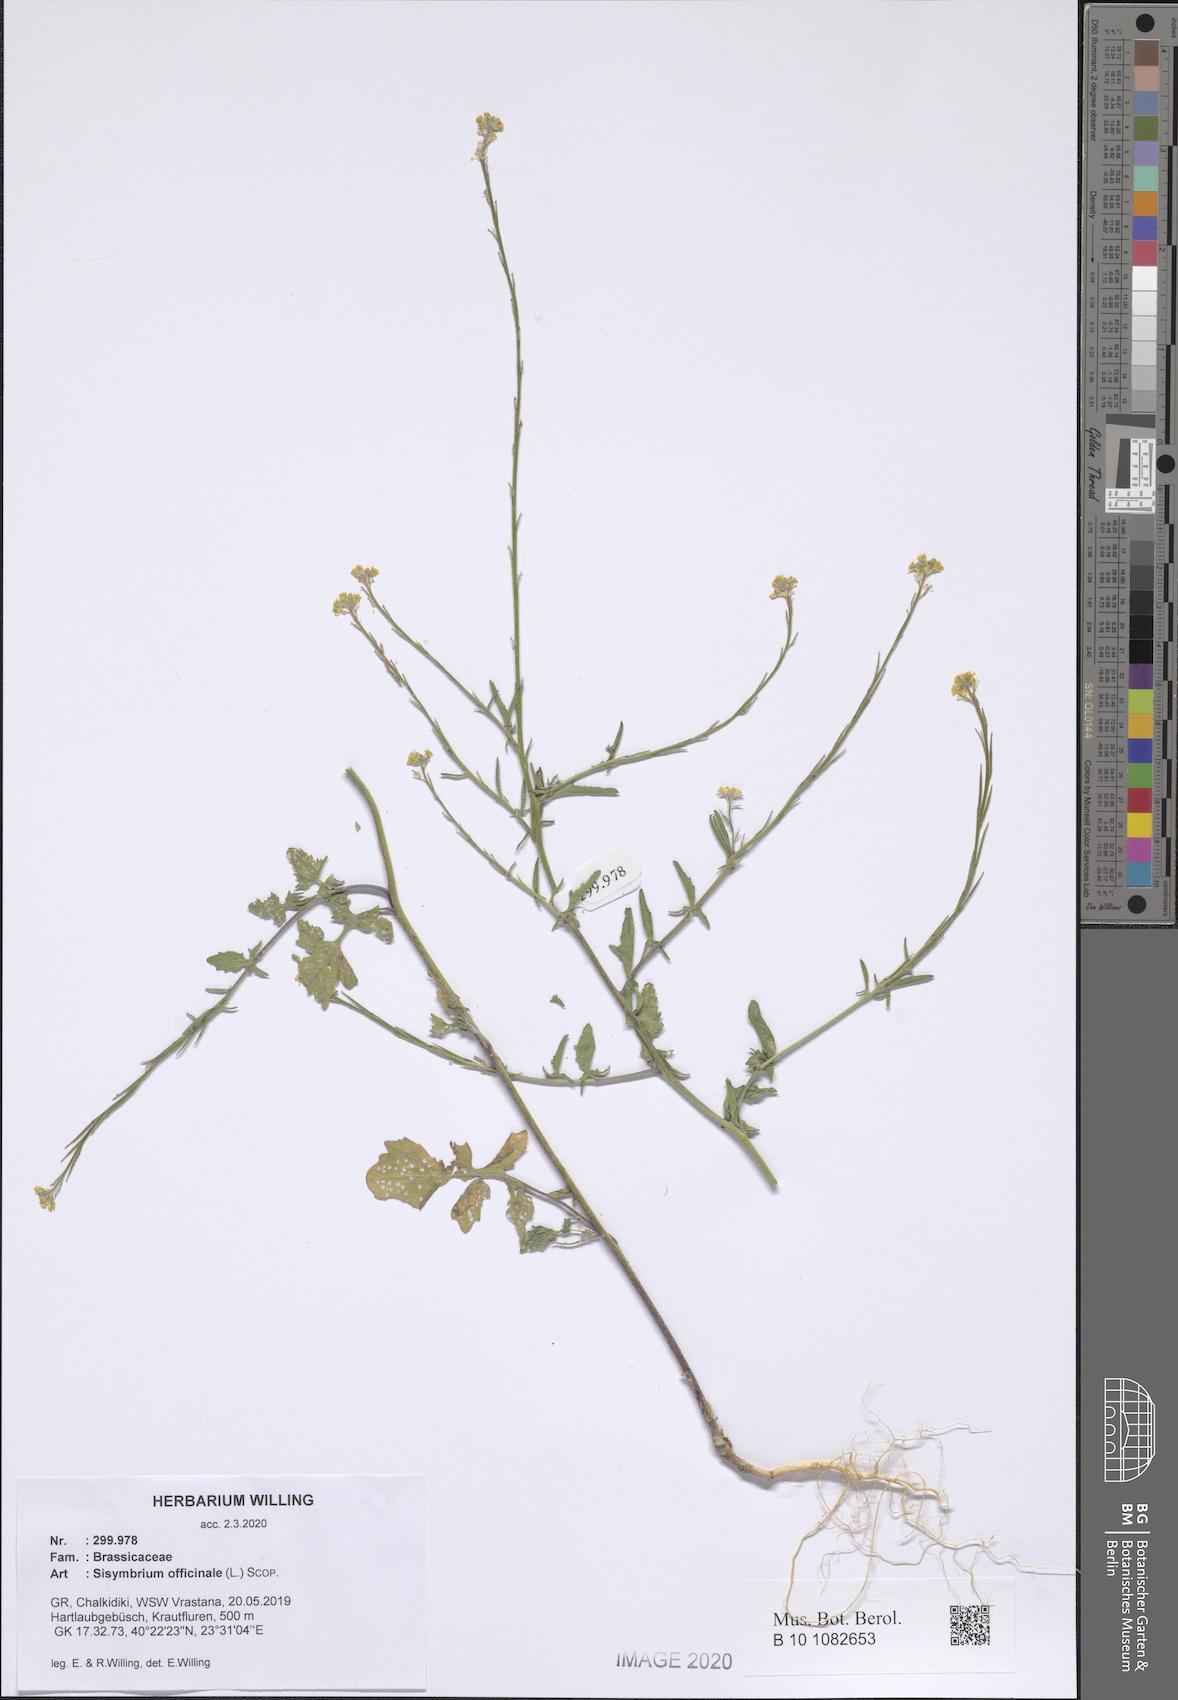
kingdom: Plantae
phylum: Tracheophyta
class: Magnoliopsida
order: Brassicales
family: Brassicaceae
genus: Sisymbrium
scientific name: Sisymbrium officinale
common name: Hedge mustard
